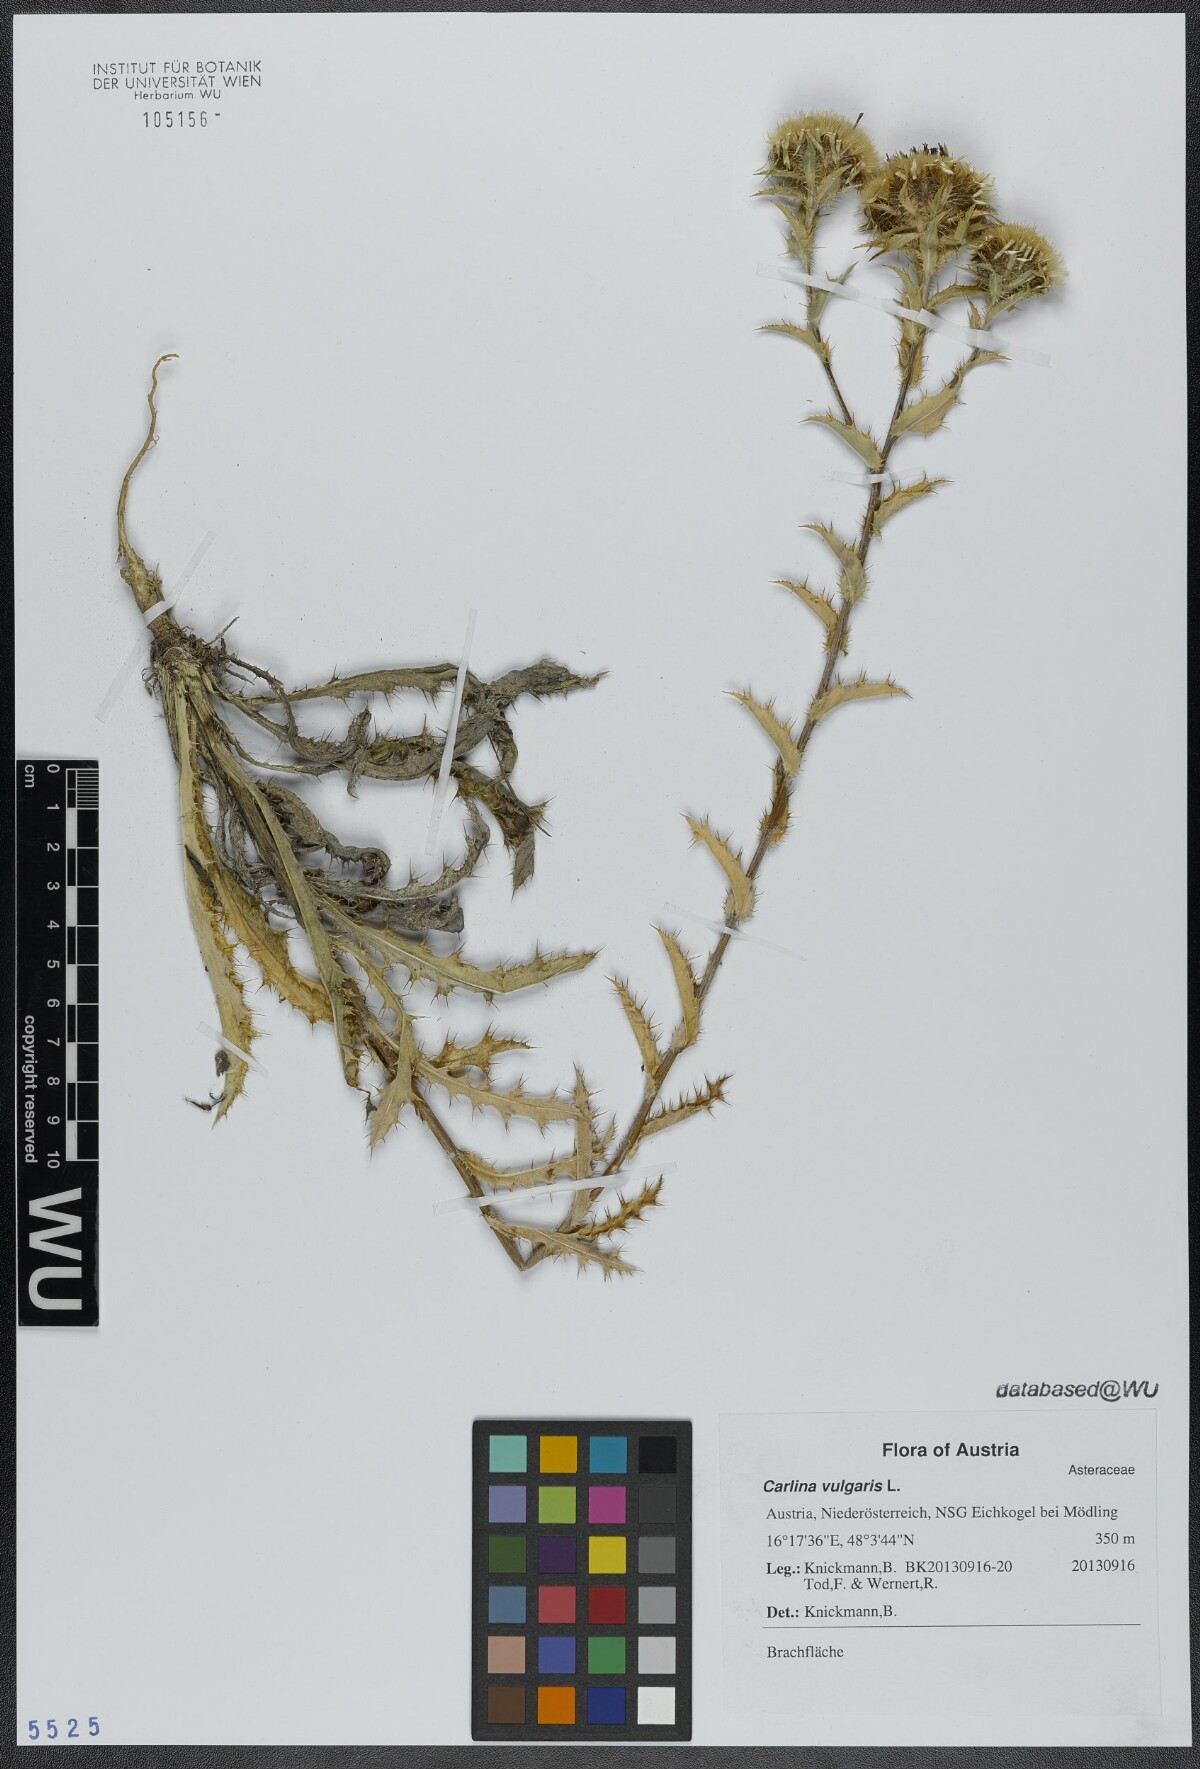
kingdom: Plantae
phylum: Tracheophyta
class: Magnoliopsida
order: Asterales
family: Asteraceae
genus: Carlina
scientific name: Carlina vulgaris
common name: Carline thistle
